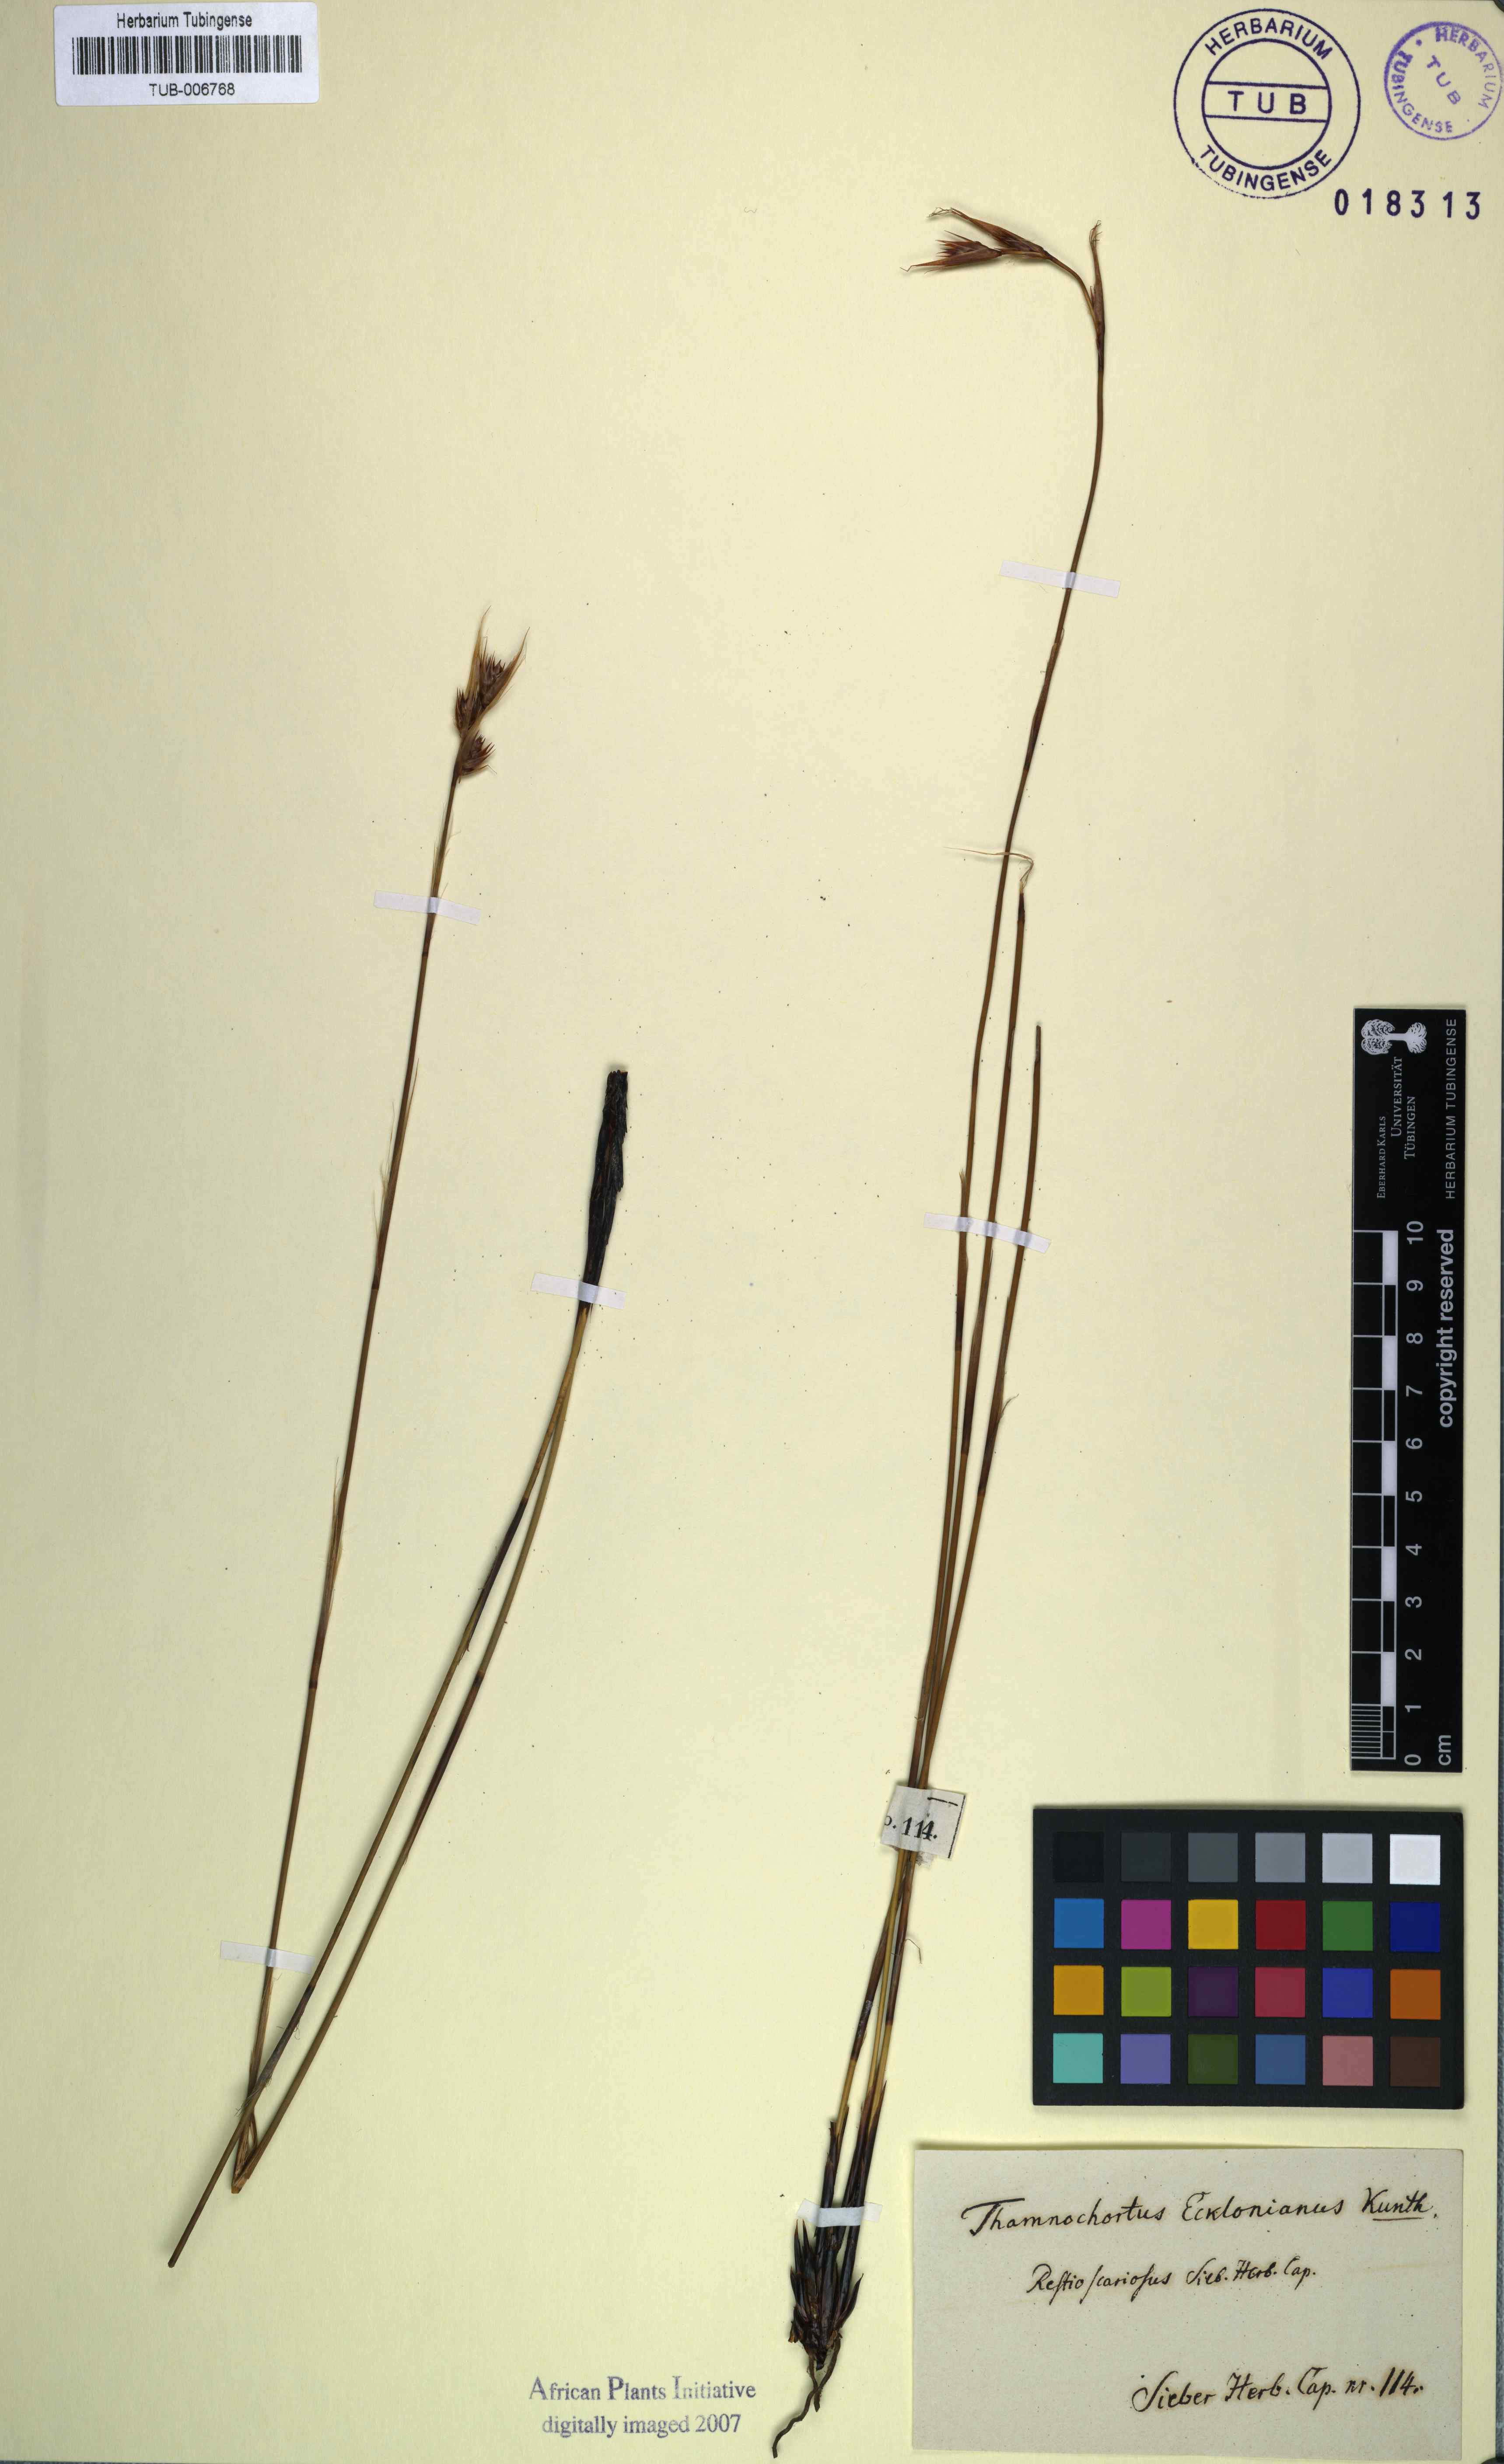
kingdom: Plantae
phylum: Tracheophyta
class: Liliopsida
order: Poales
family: Restionaceae
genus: Thamnochortus
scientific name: Thamnochortus lucens
